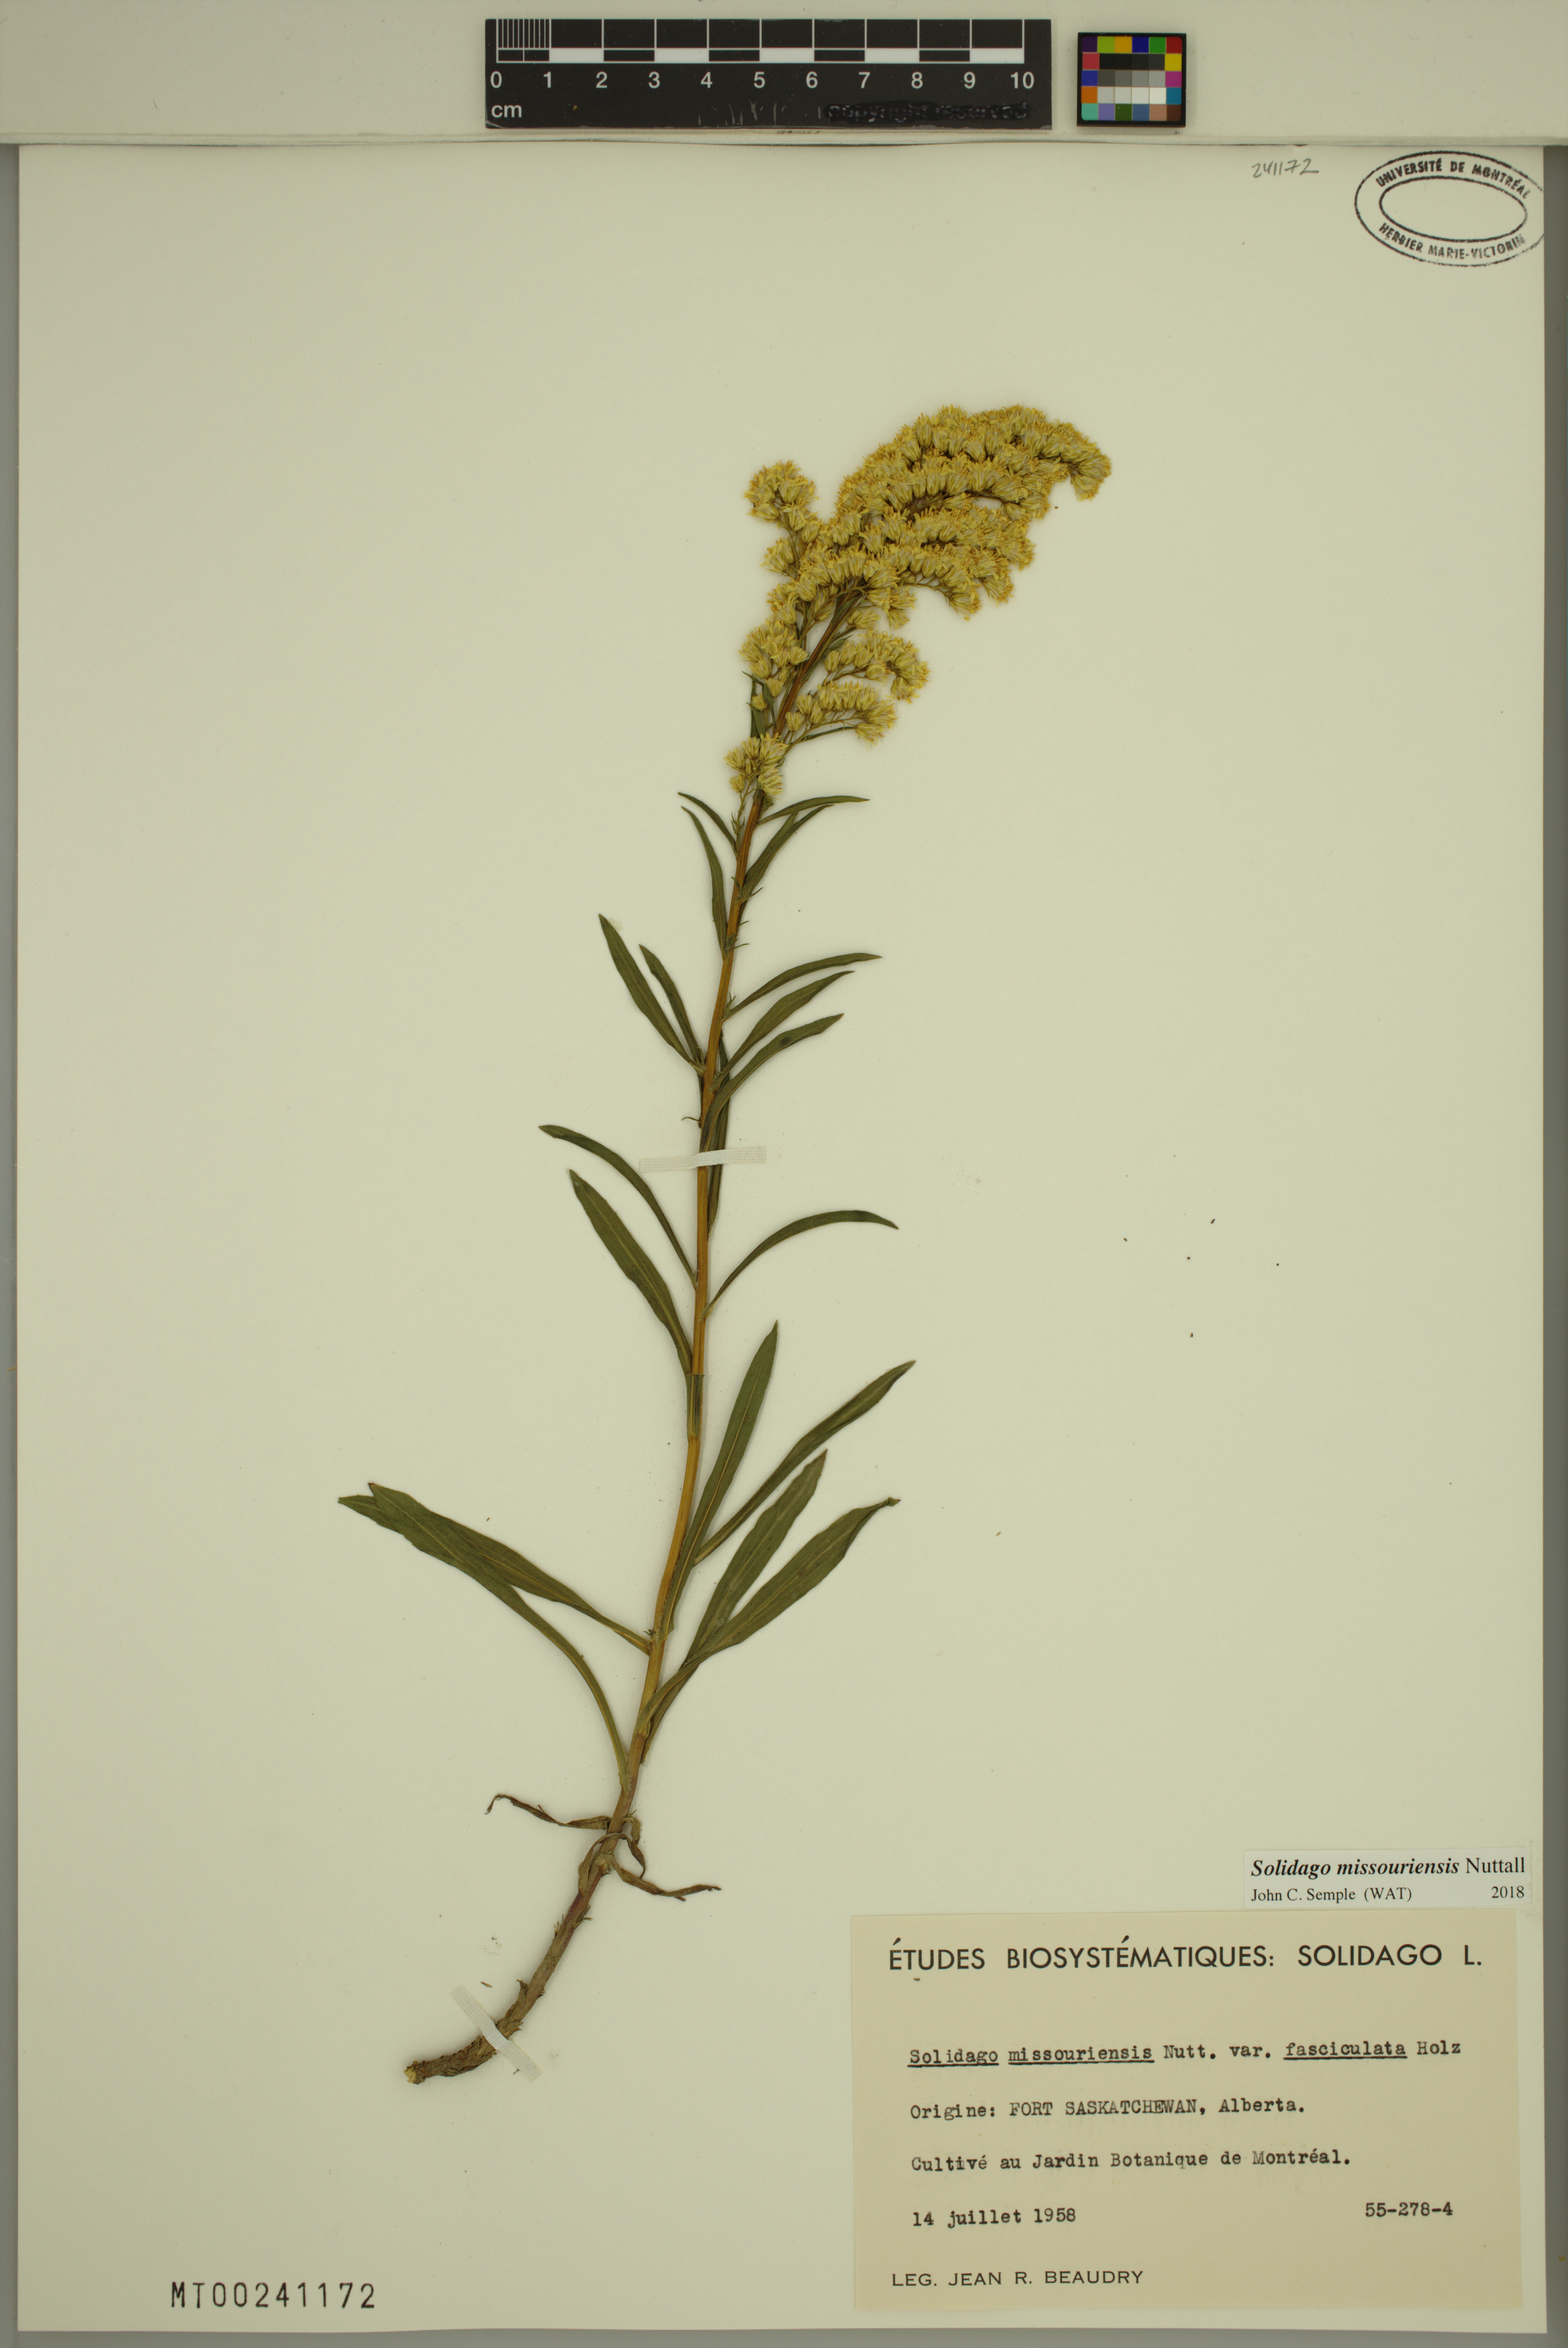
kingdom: Plantae
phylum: Tracheophyta
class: Magnoliopsida
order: Asterales
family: Asteraceae
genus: Solidago
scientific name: Solidago missouriensis
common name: Prairie goldenrod
